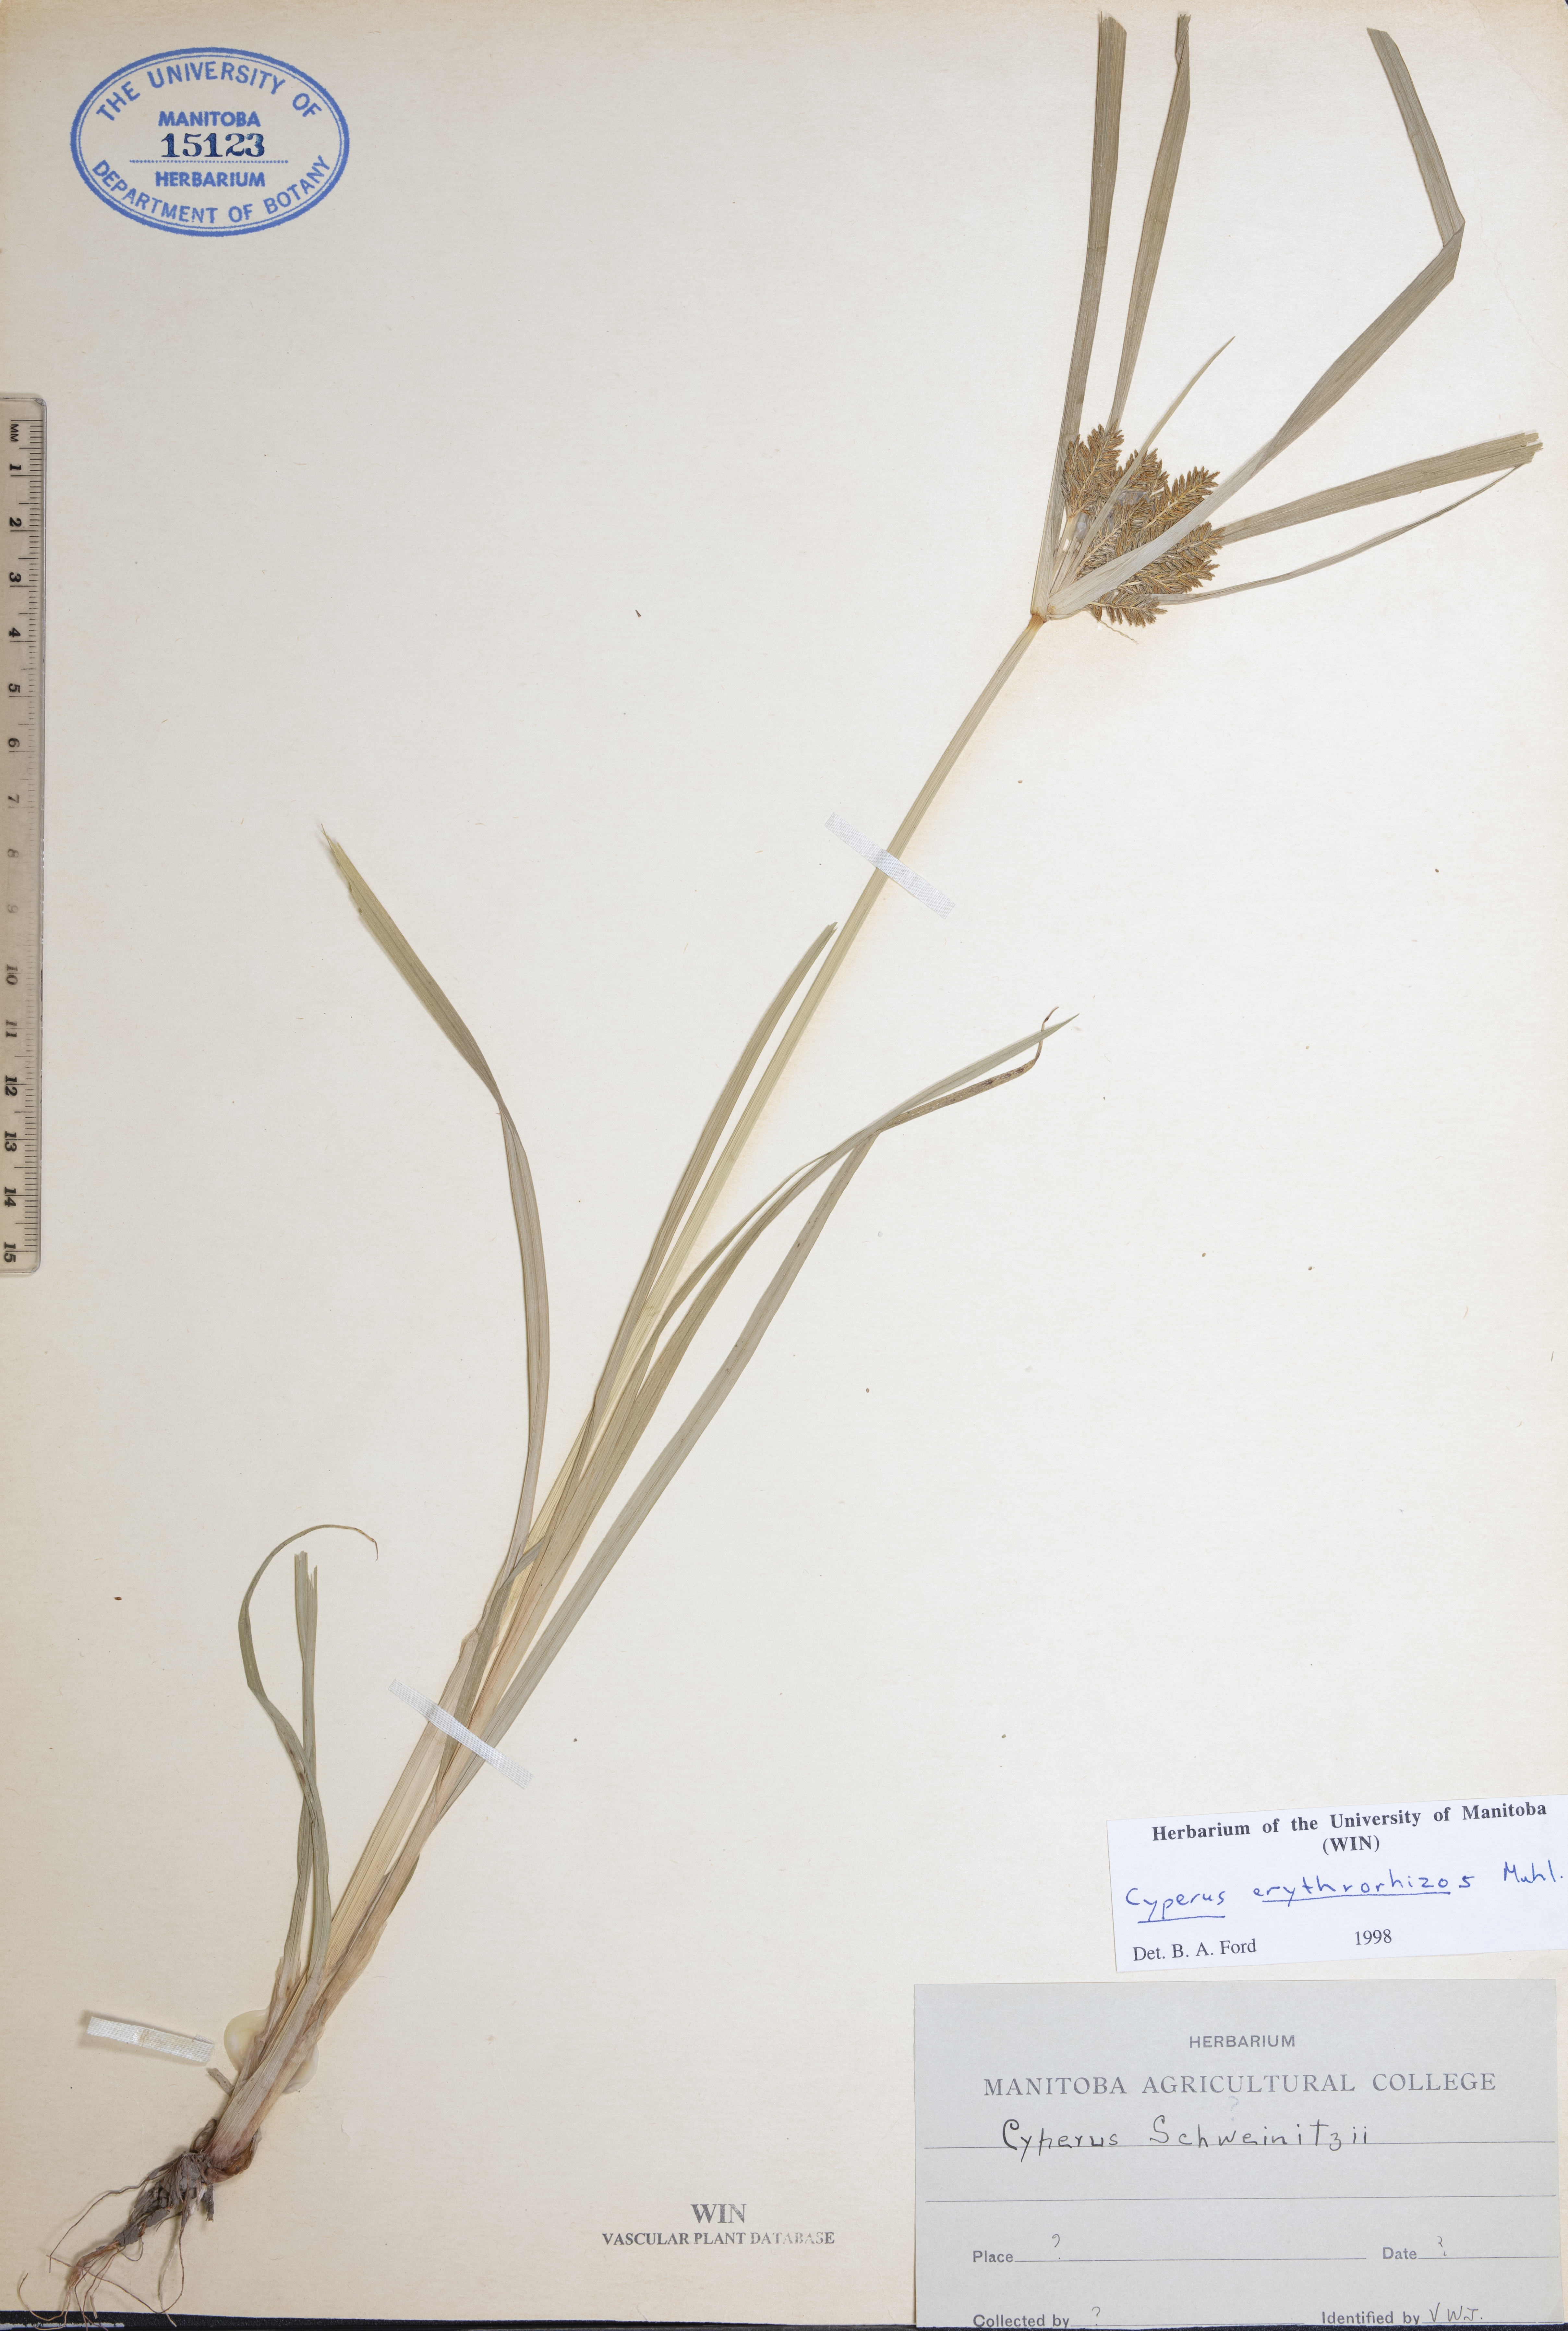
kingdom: Plantae
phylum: Tracheophyta
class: Liliopsida
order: Poales
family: Cyperaceae
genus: Cyperus
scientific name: Cyperus erythrorhizos
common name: Red-root flat sedge
